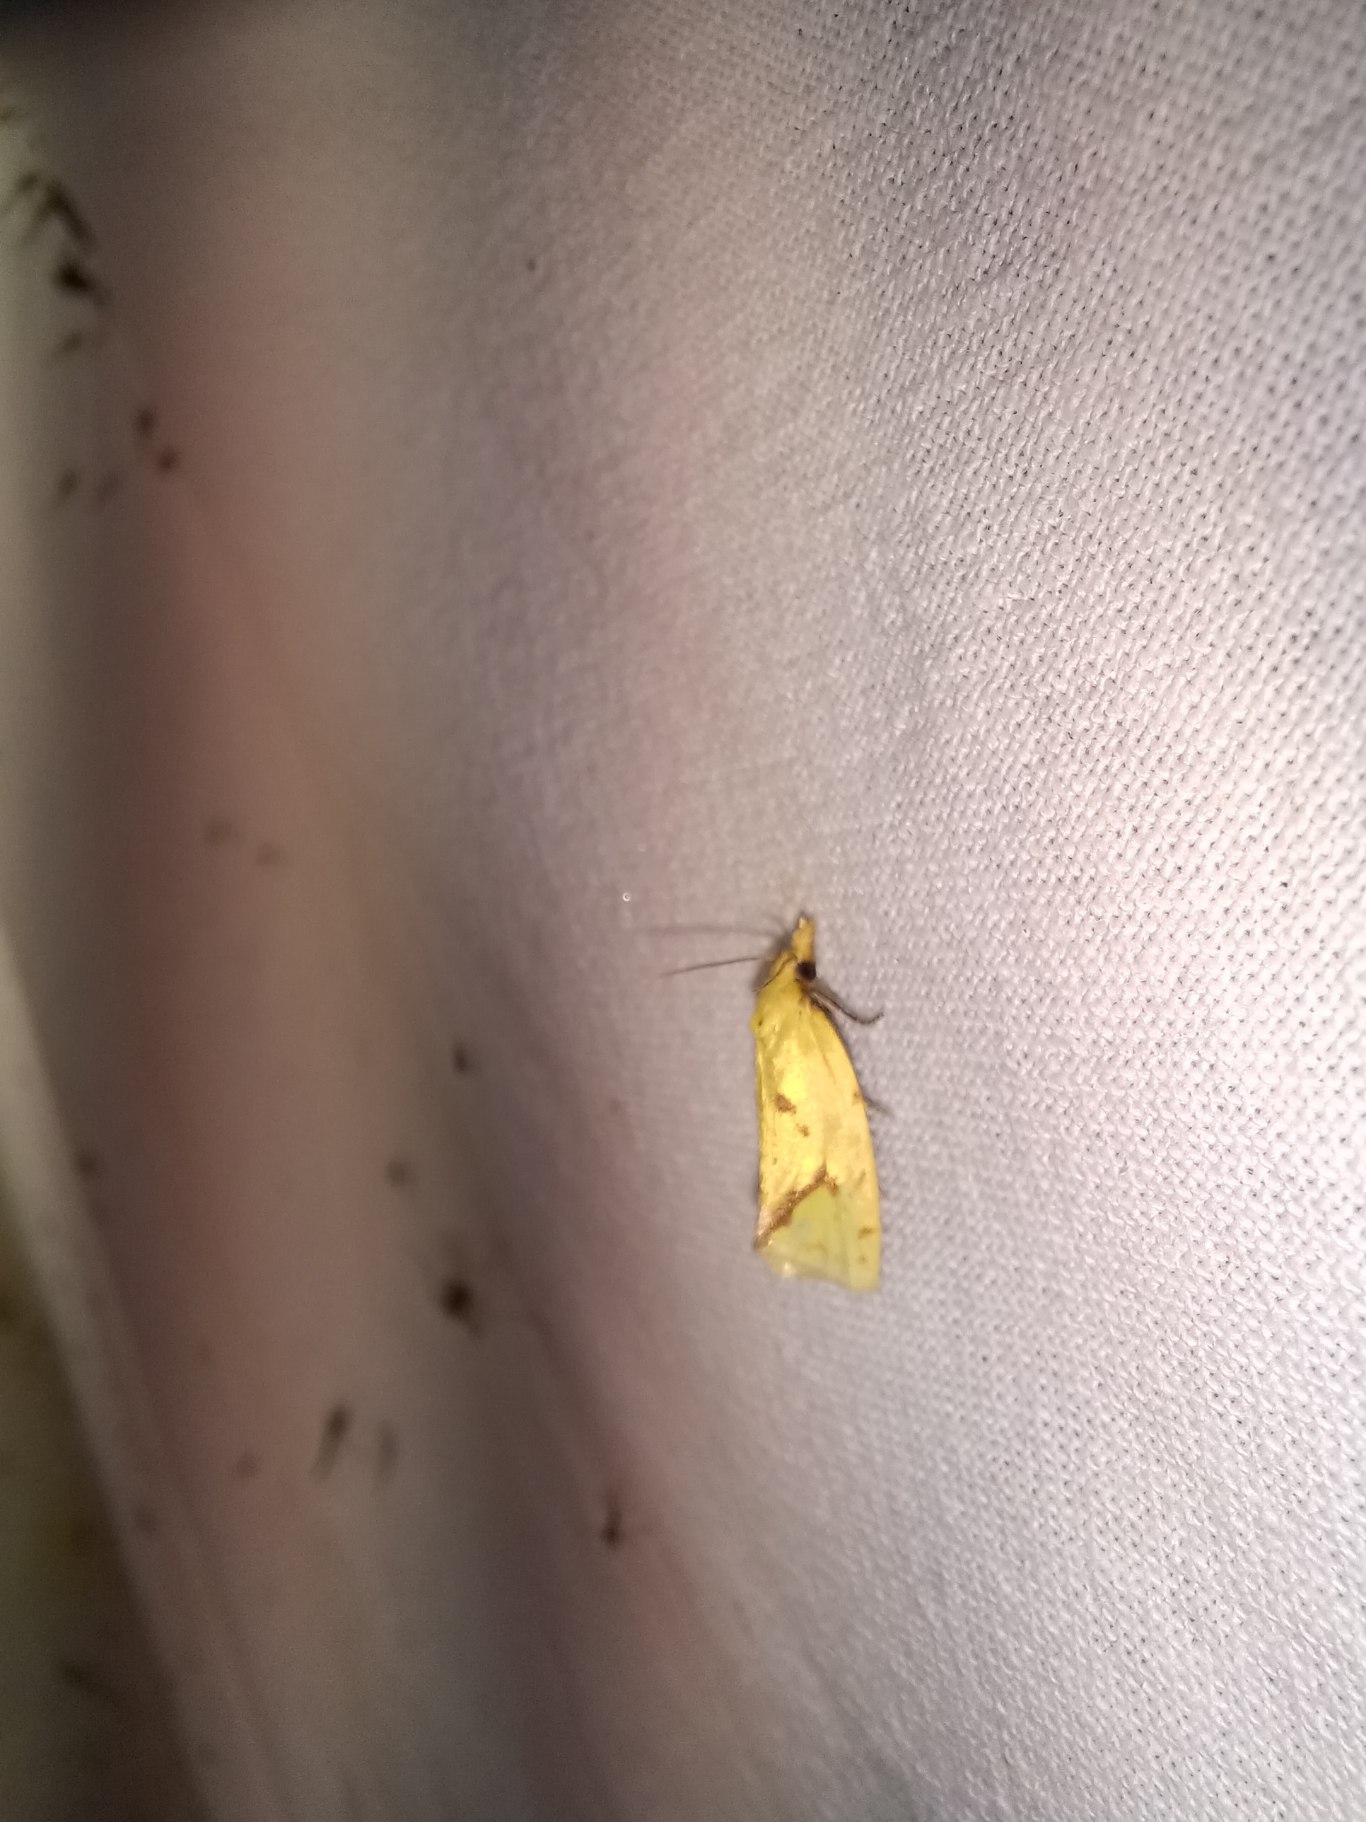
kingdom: Animalia
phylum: Arthropoda
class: Insecta
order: Lepidoptera
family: Tortricidae
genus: Agapeta
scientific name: Agapeta hamana
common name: Tidselgulvikler
